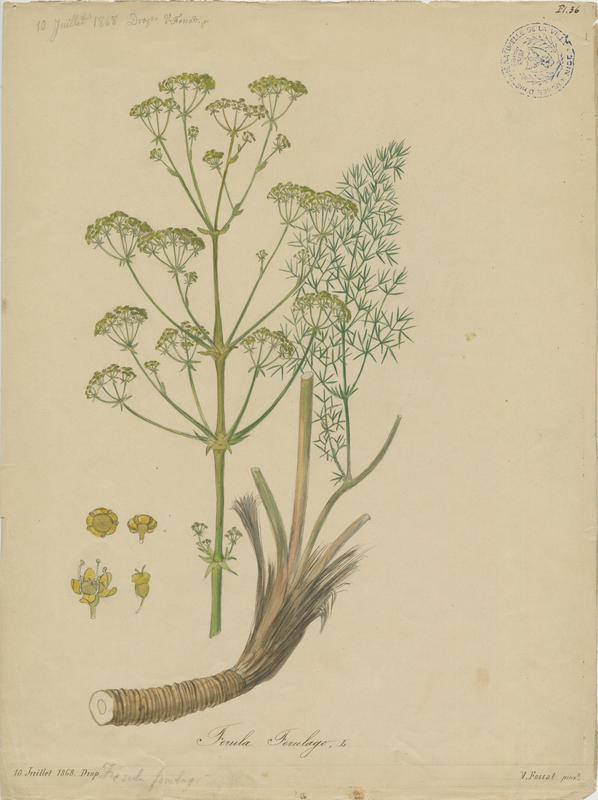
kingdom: Plantae
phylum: Tracheophyta
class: Magnoliopsida
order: Apiales
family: Apiaceae
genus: Ferulago
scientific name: Ferulago galbanifera
